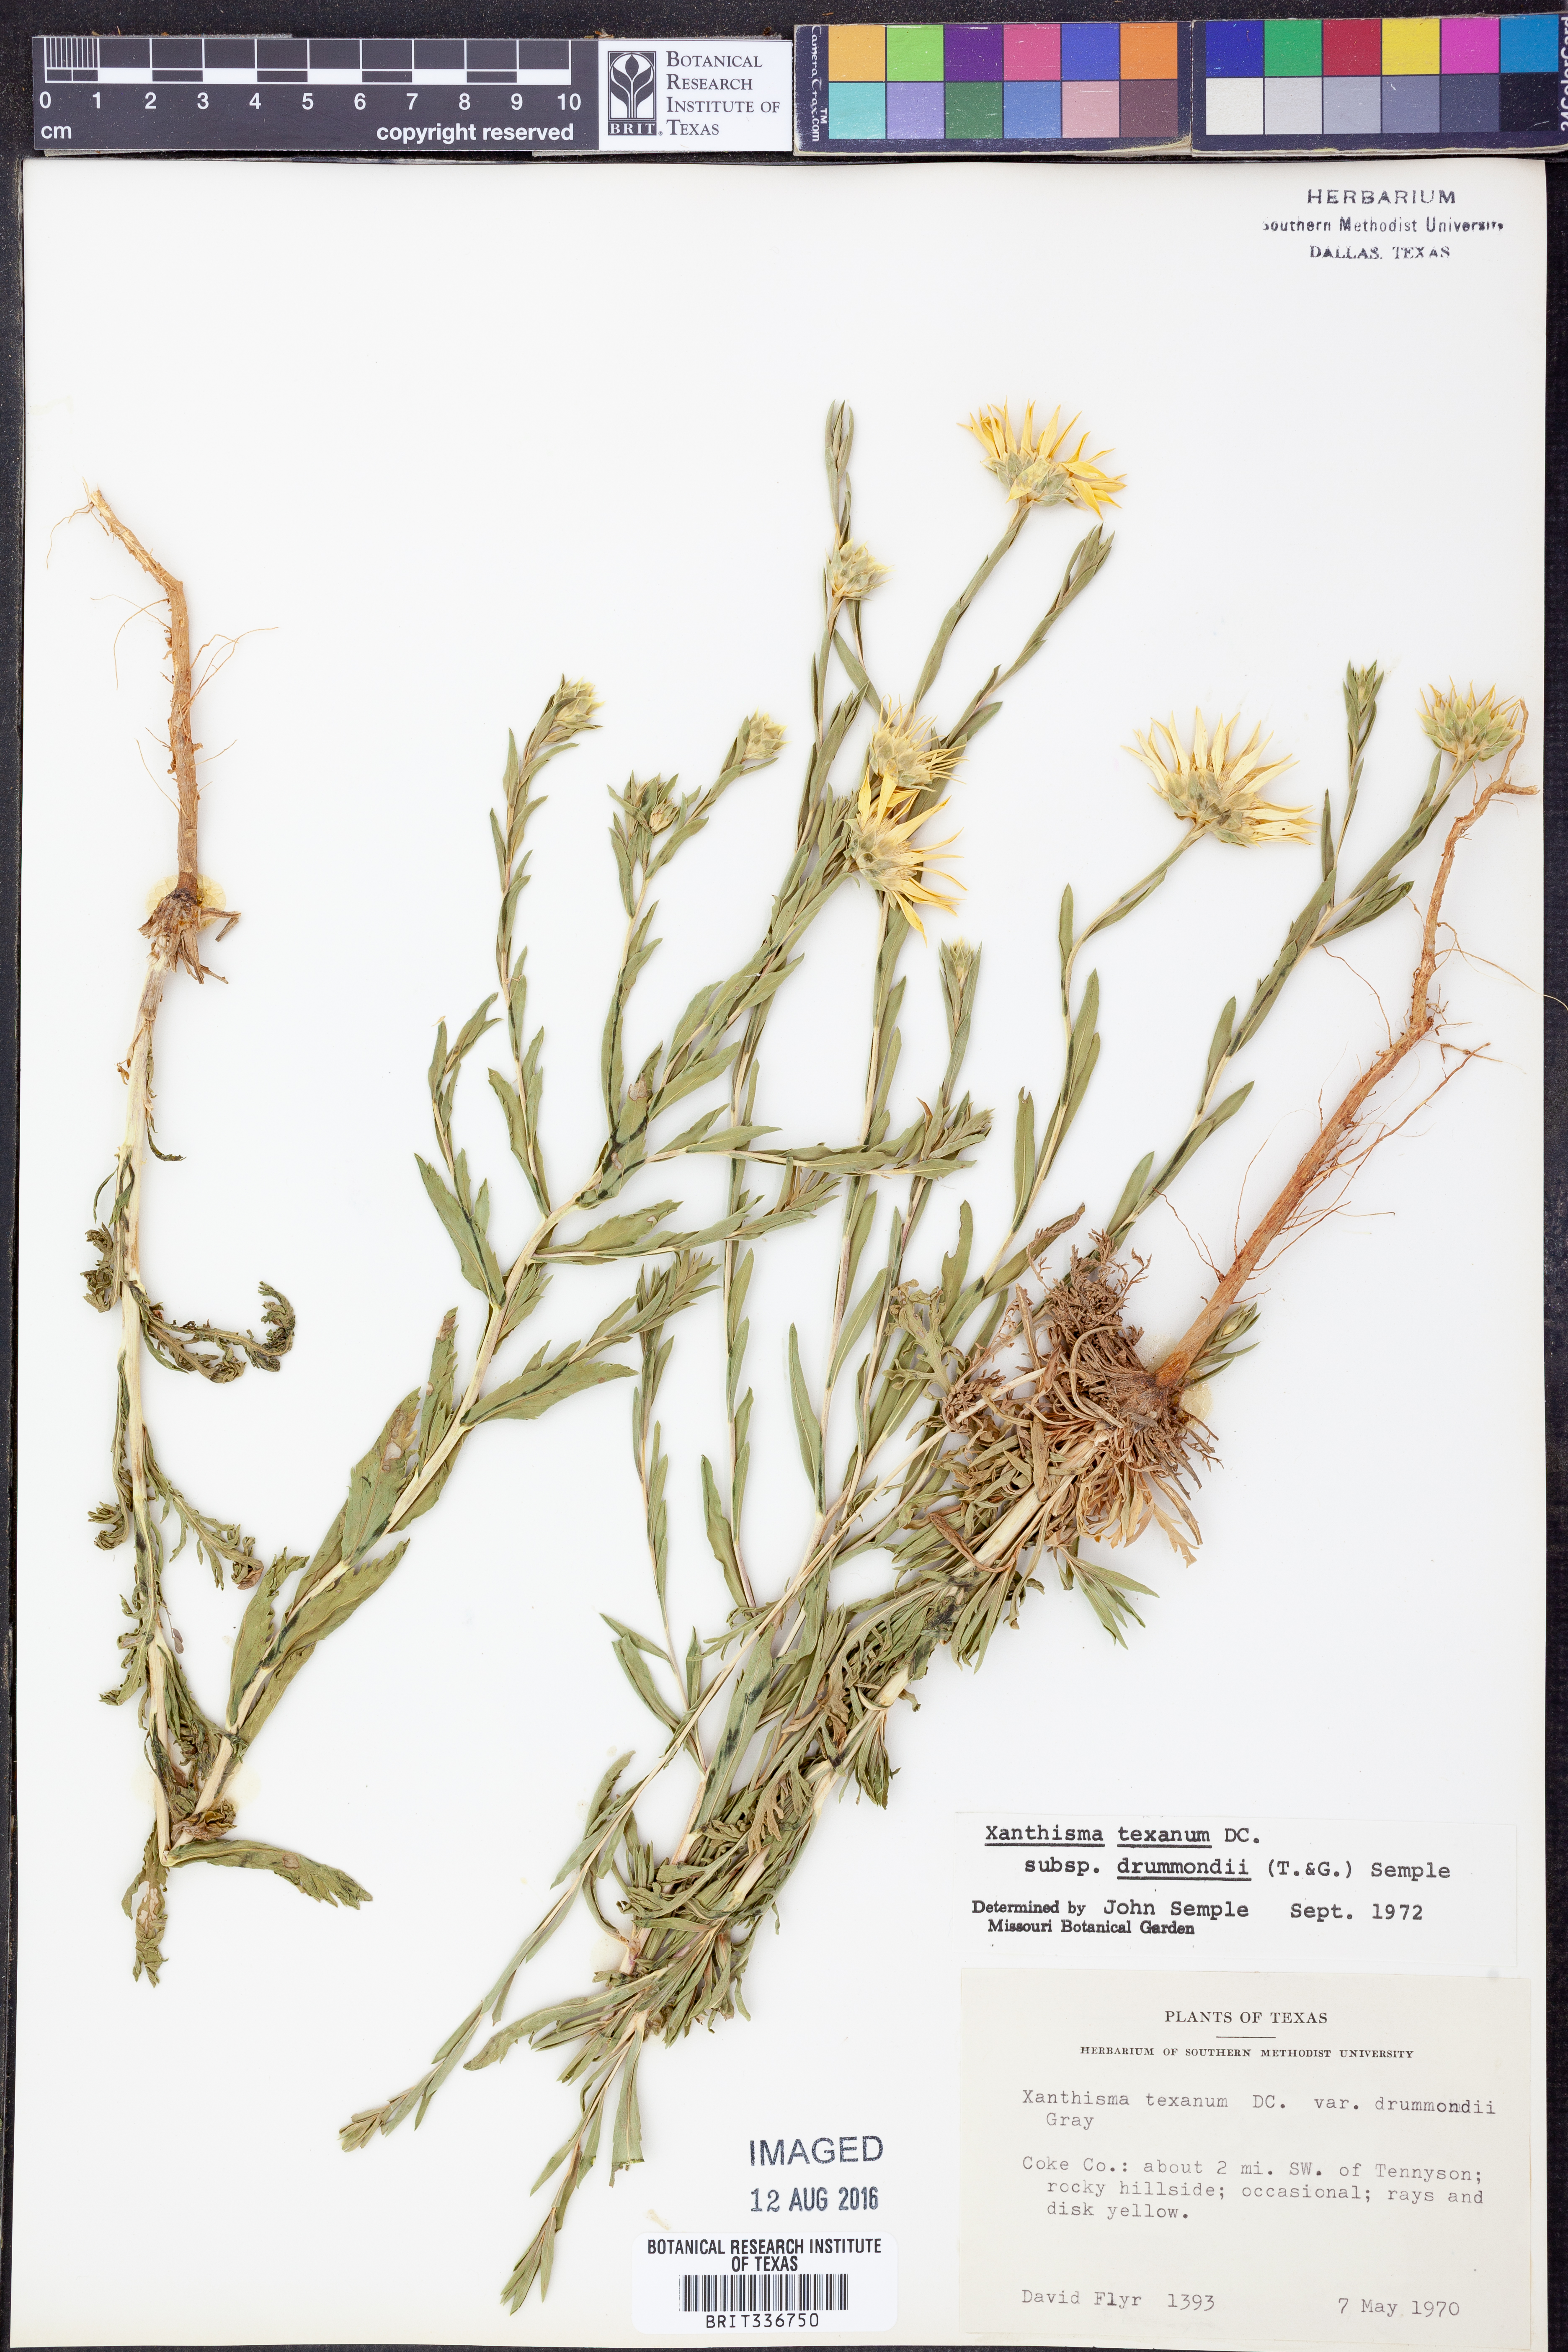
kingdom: Plantae
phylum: Tracheophyta
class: Magnoliopsida
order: Asterales
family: Asteraceae
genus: Xanthisma
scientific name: Xanthisma texanum
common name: Texas sleepy daisy
